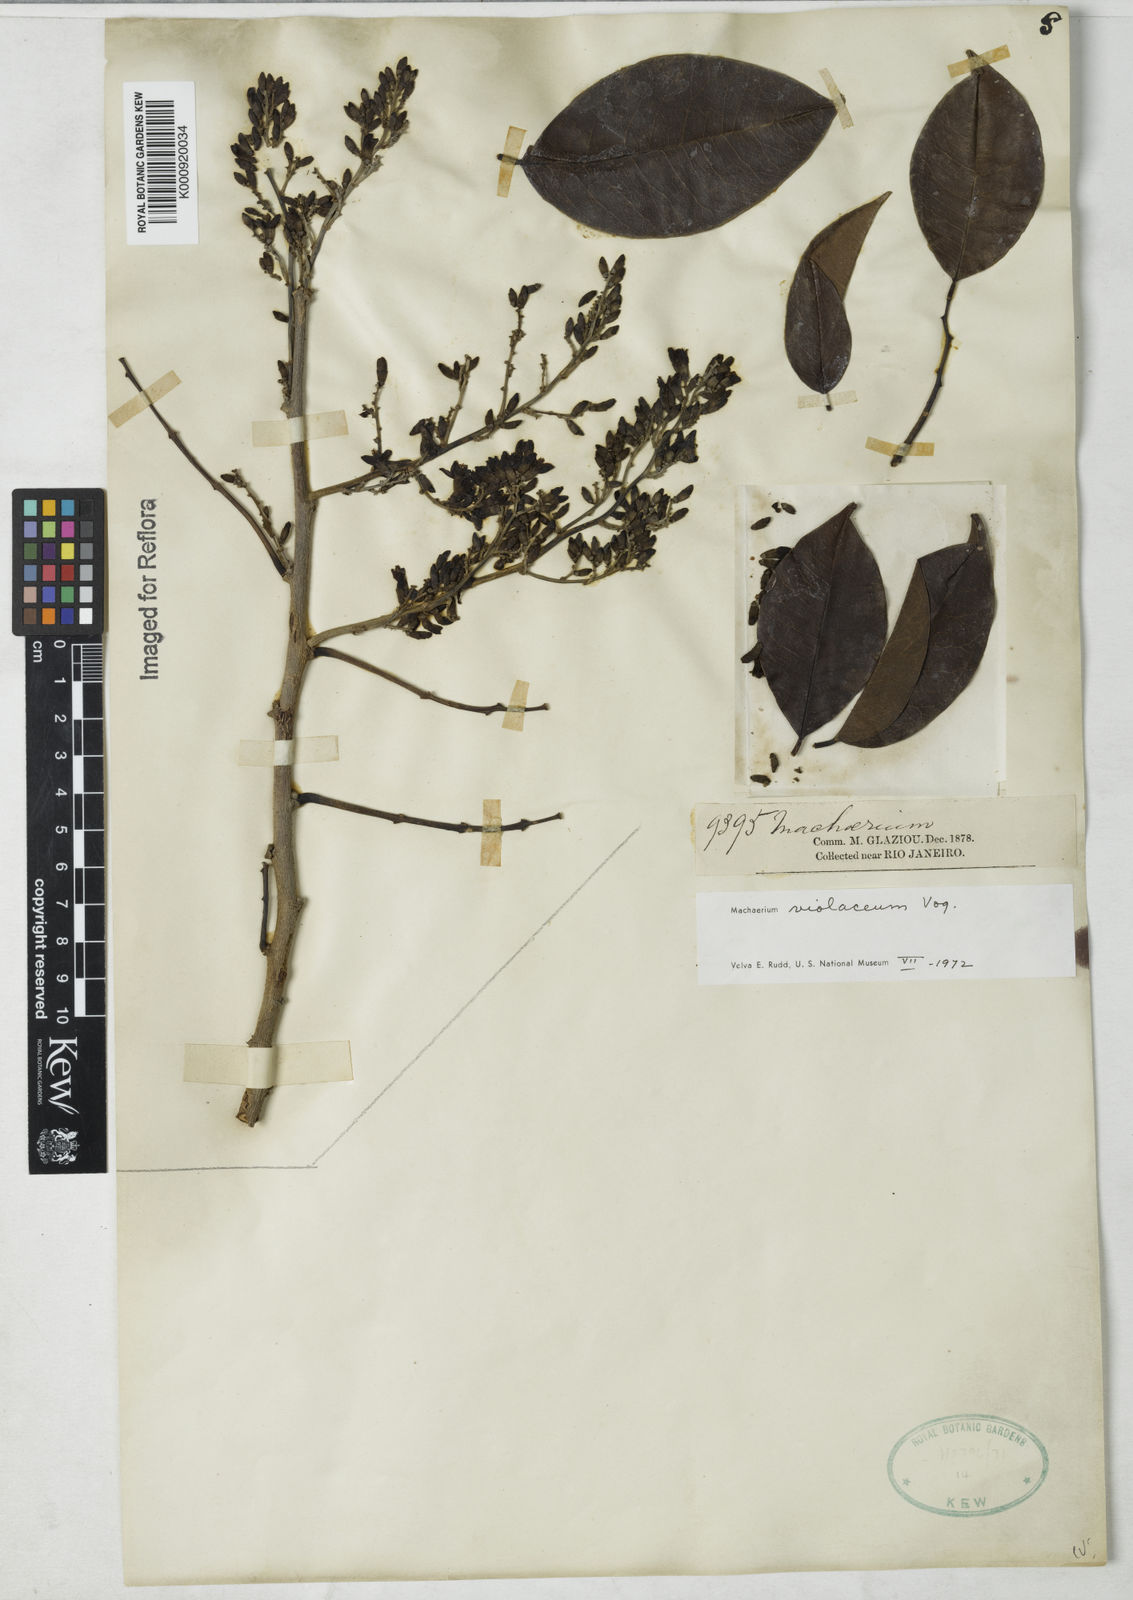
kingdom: Plantae
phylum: Tracheophyta
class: Magnoliopsida
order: Fabales
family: Fabaceae
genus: Machaerium
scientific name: Machaerium debile
